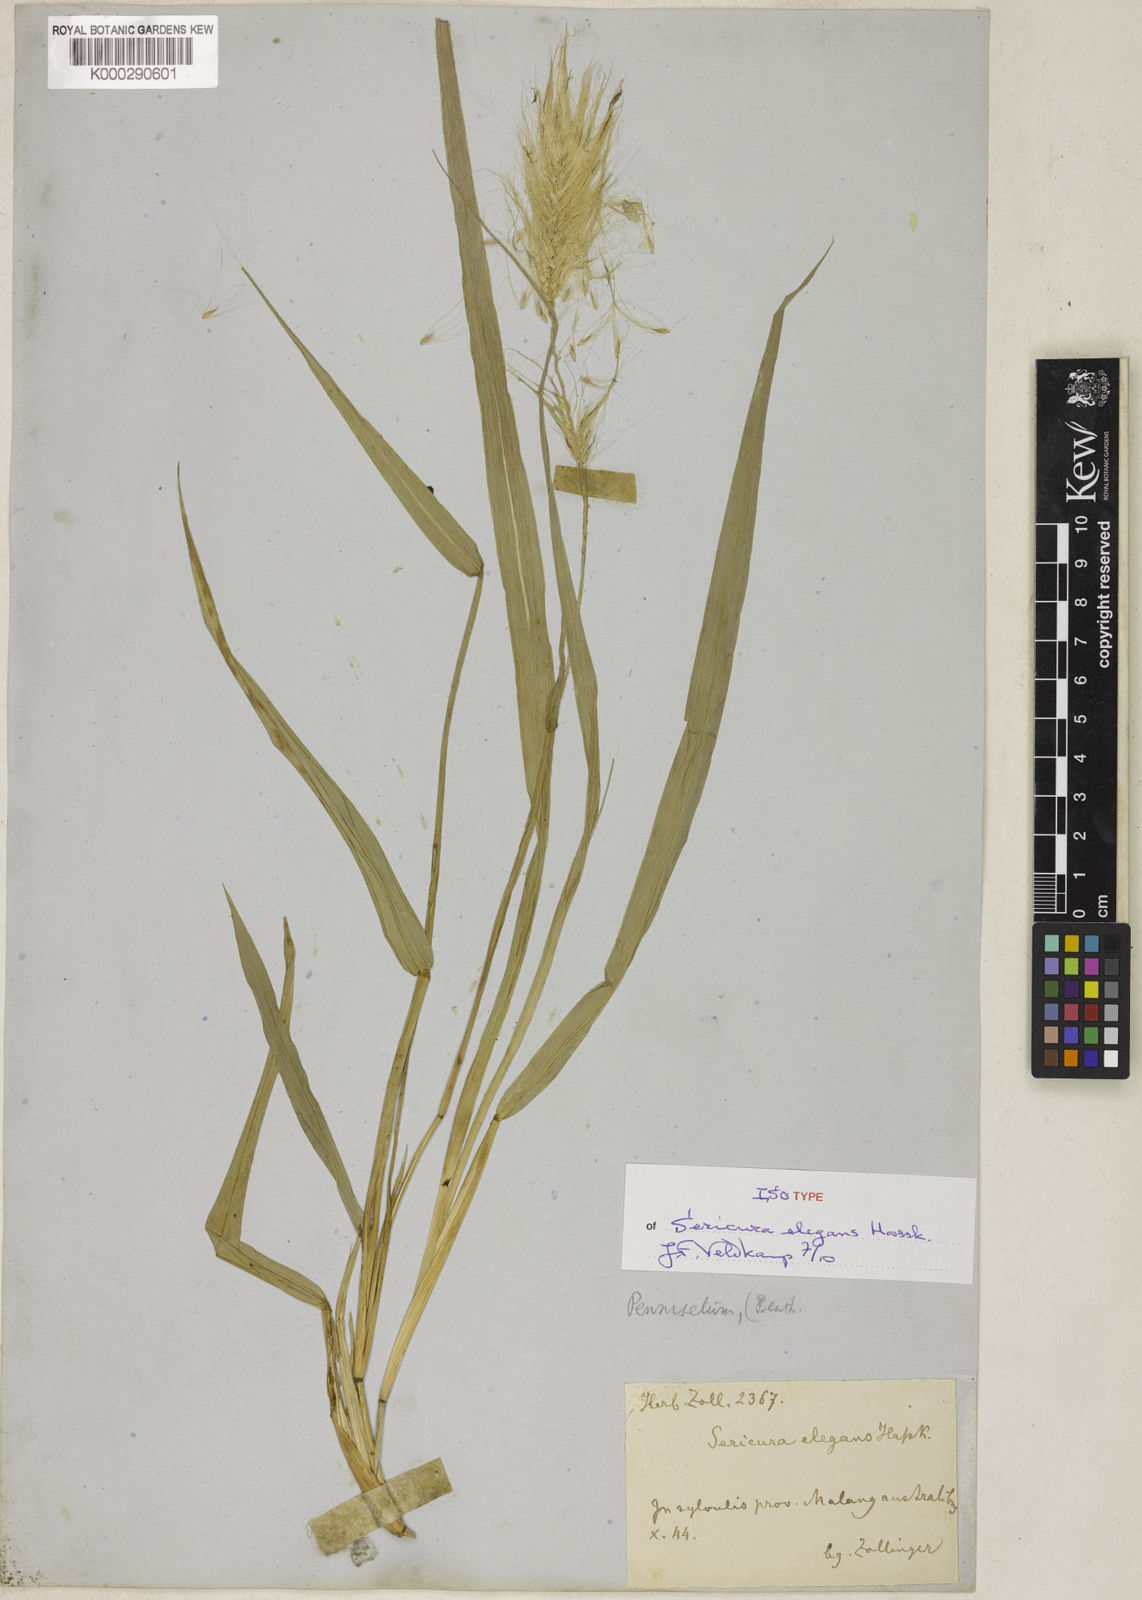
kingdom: Plantae
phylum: Tracheophyta
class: Liliopsida
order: Poales
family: Poaceae
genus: Cenchrus
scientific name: Cenchrus purpureus
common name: Elephant grass
